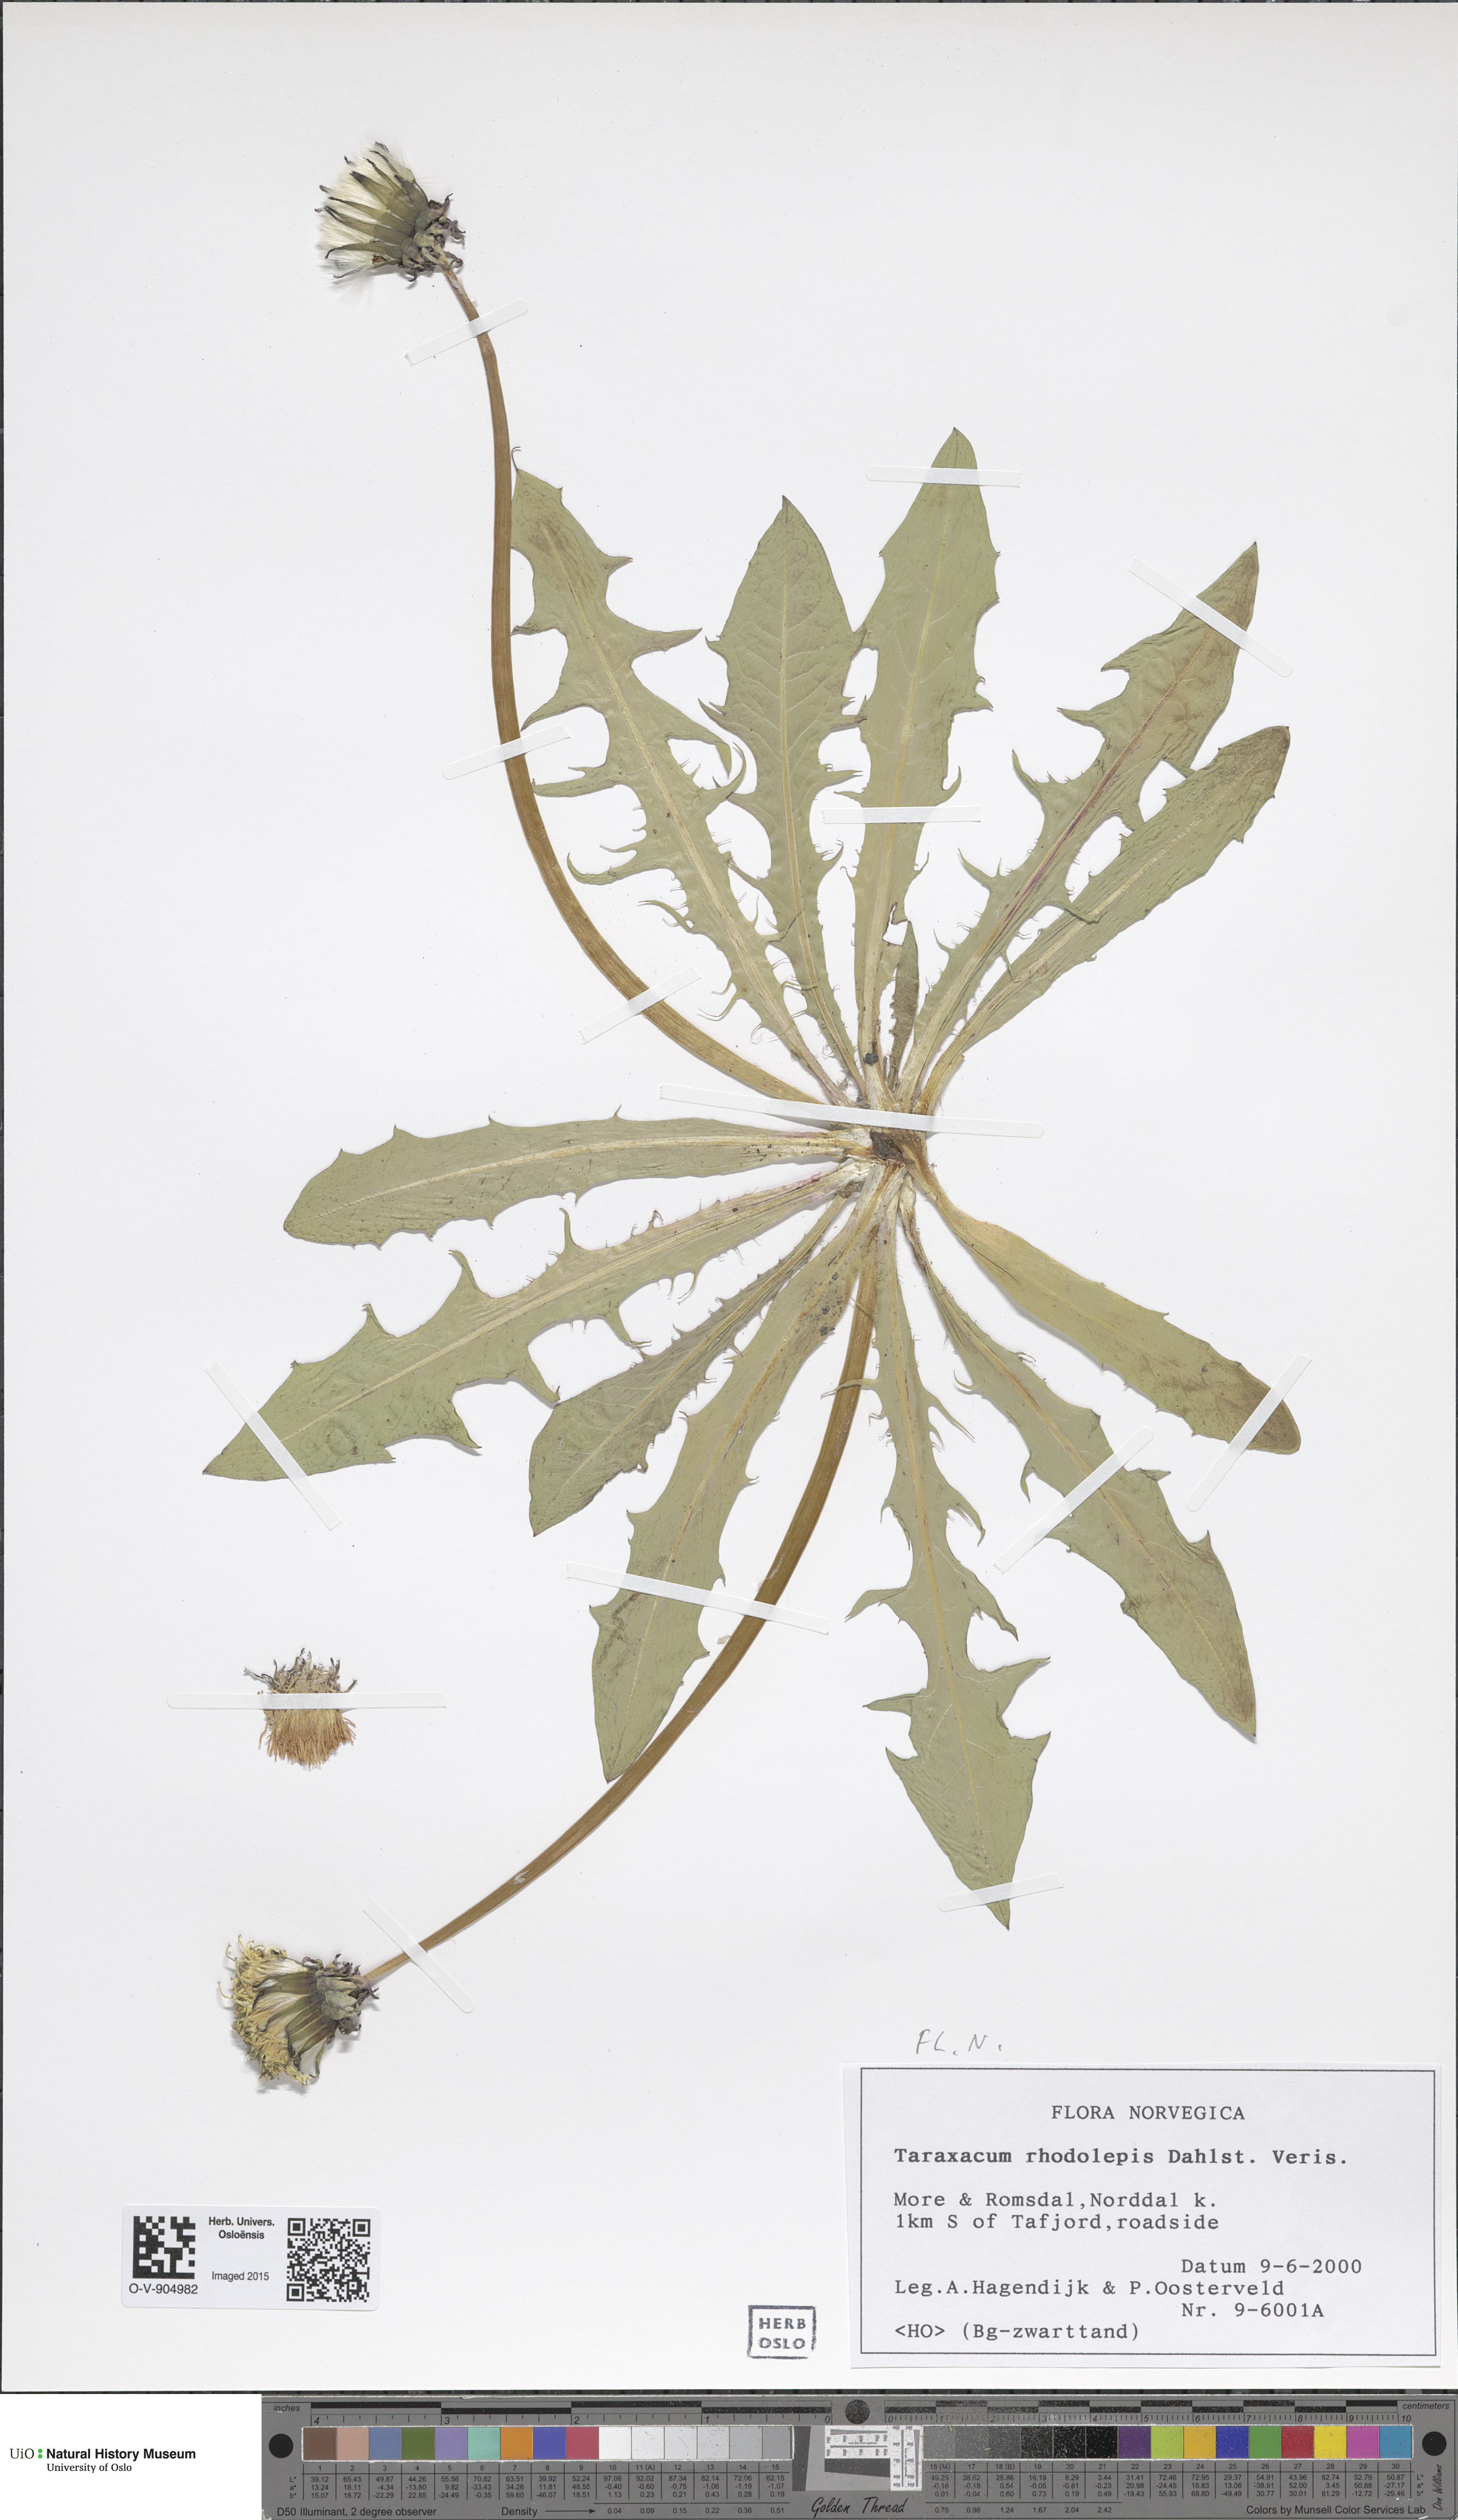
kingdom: Plantae
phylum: Tracheophyta
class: Magnoliopsida
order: Asterales
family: Asteraceae
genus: Taraxacum
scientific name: Taraxacum rhodolepis
